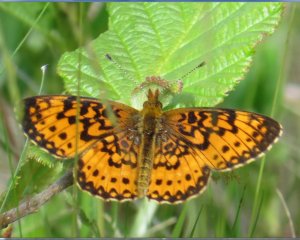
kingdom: Animalia
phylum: Arthropoda
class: Insecta
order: Lepidoptera
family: Nymphalidae
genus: Boloria
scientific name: Boloria selene
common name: Silver-bordered Fritillary
